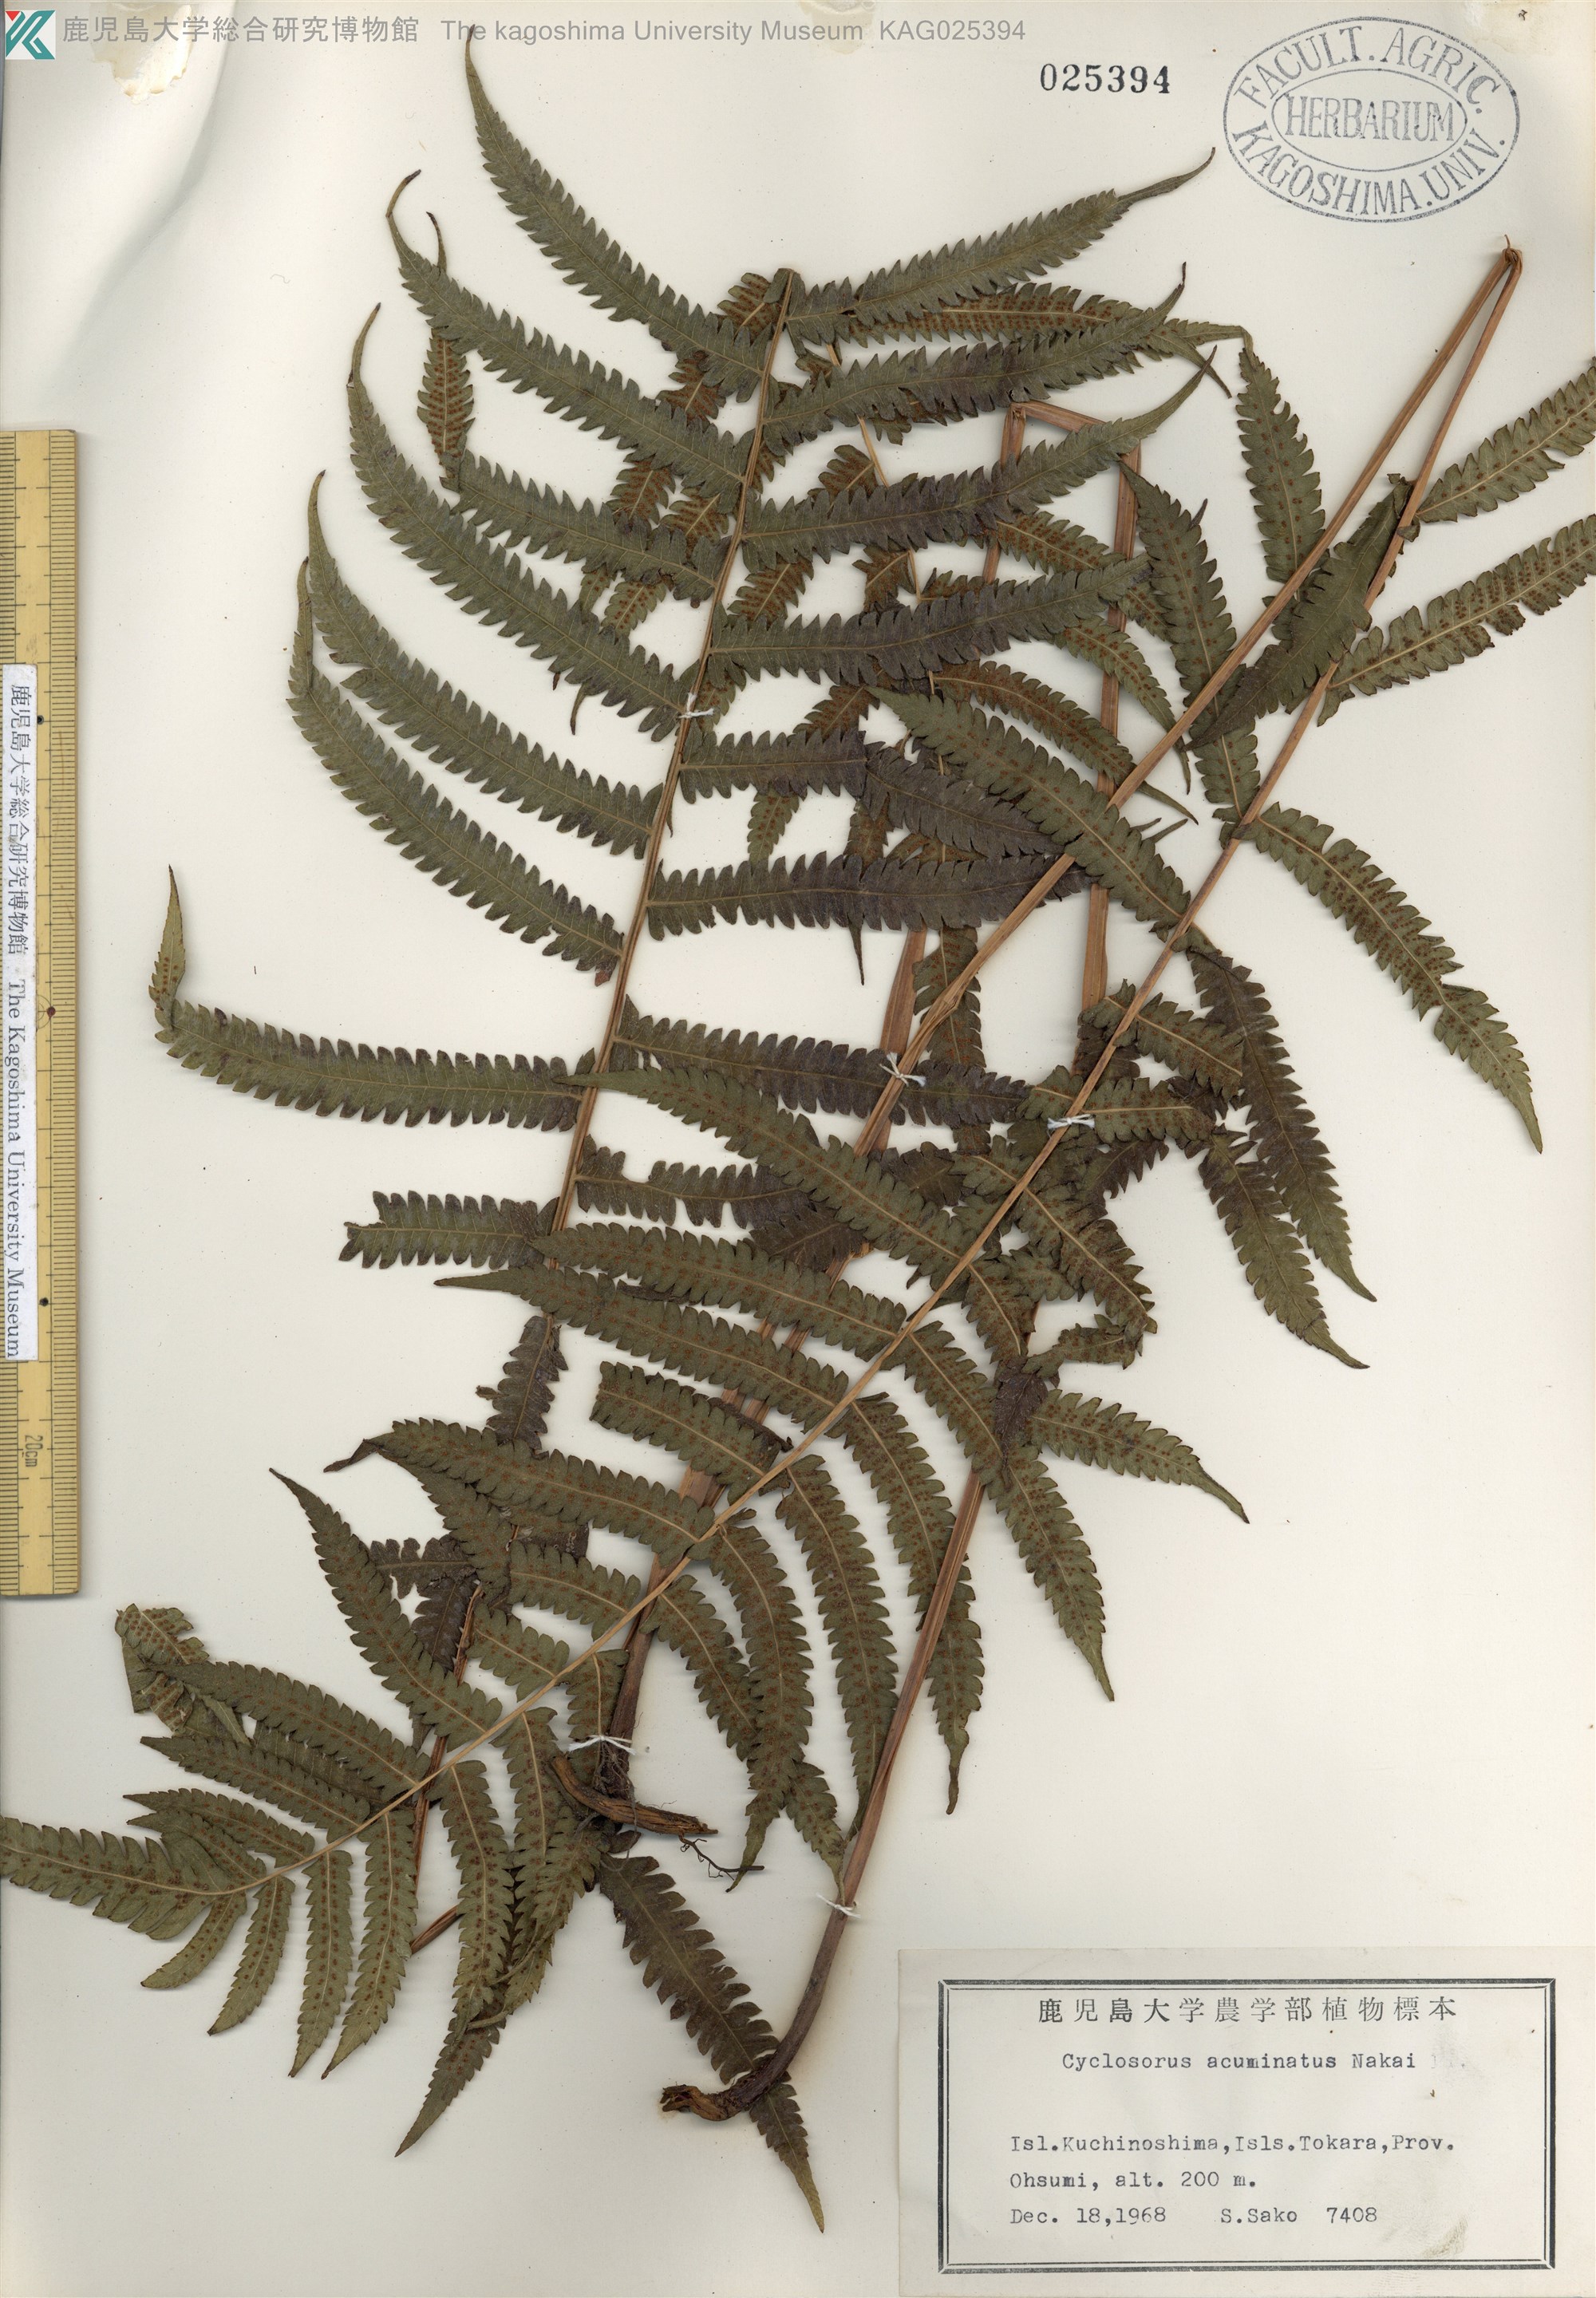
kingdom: Plantae
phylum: Tracheophyta
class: Polypodiopsida
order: Polypodiales
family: Thelypteridaceae
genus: Christella
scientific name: Christella acuminata
